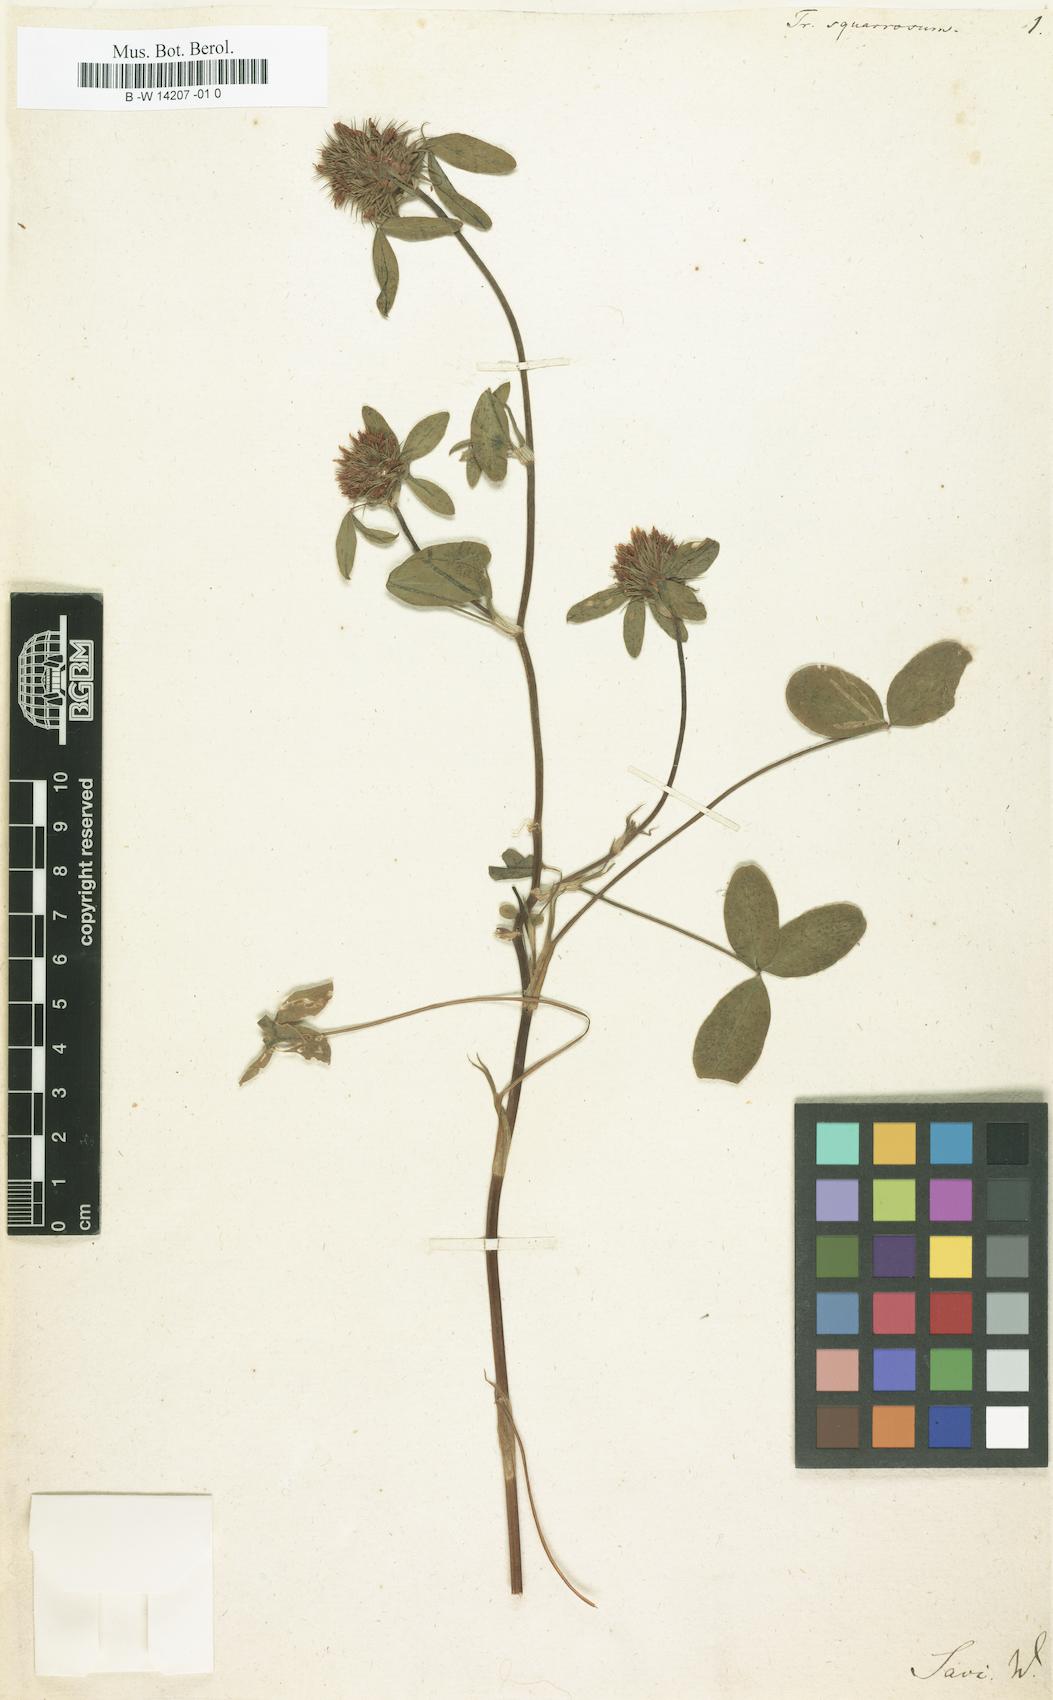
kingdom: Plantae
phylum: Tracheophyta
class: Magnoliopsida
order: Fabales
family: Fabaceae
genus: Trifolium
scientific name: Trifolium squarrosum
